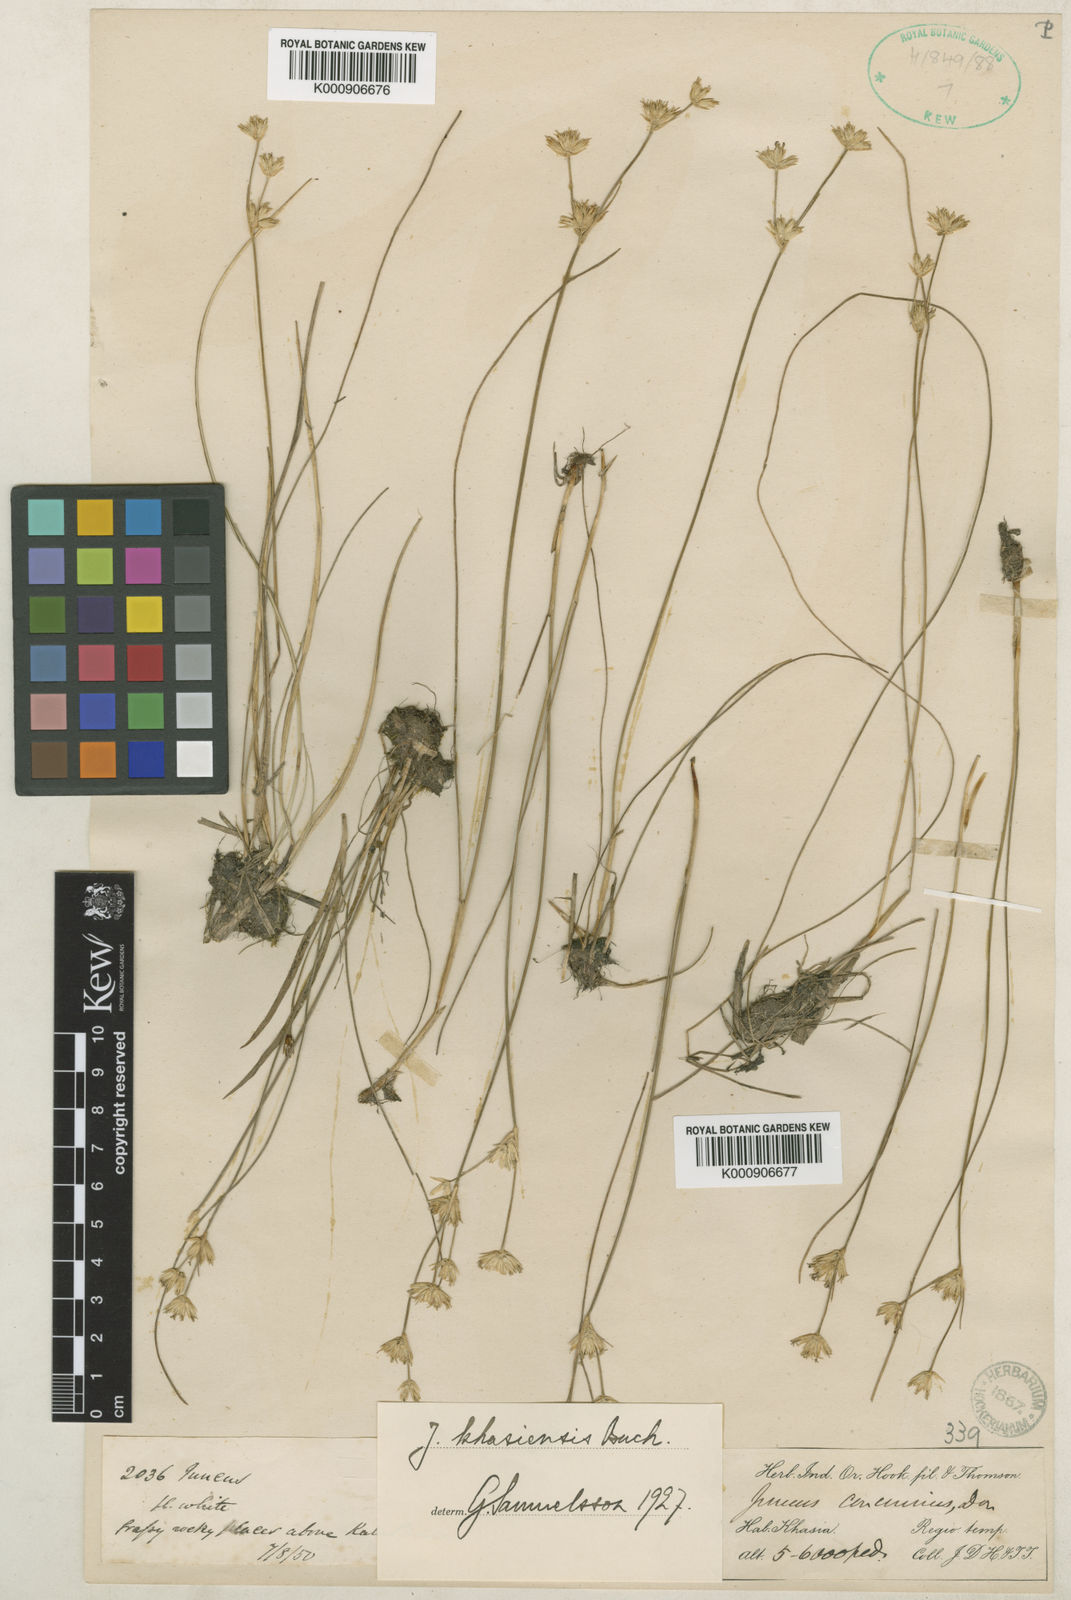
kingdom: Plantae
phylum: Tracheophyta
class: Liliopsida
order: Poales
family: Juncaceae
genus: Juncus
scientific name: Juncus khasiensis
